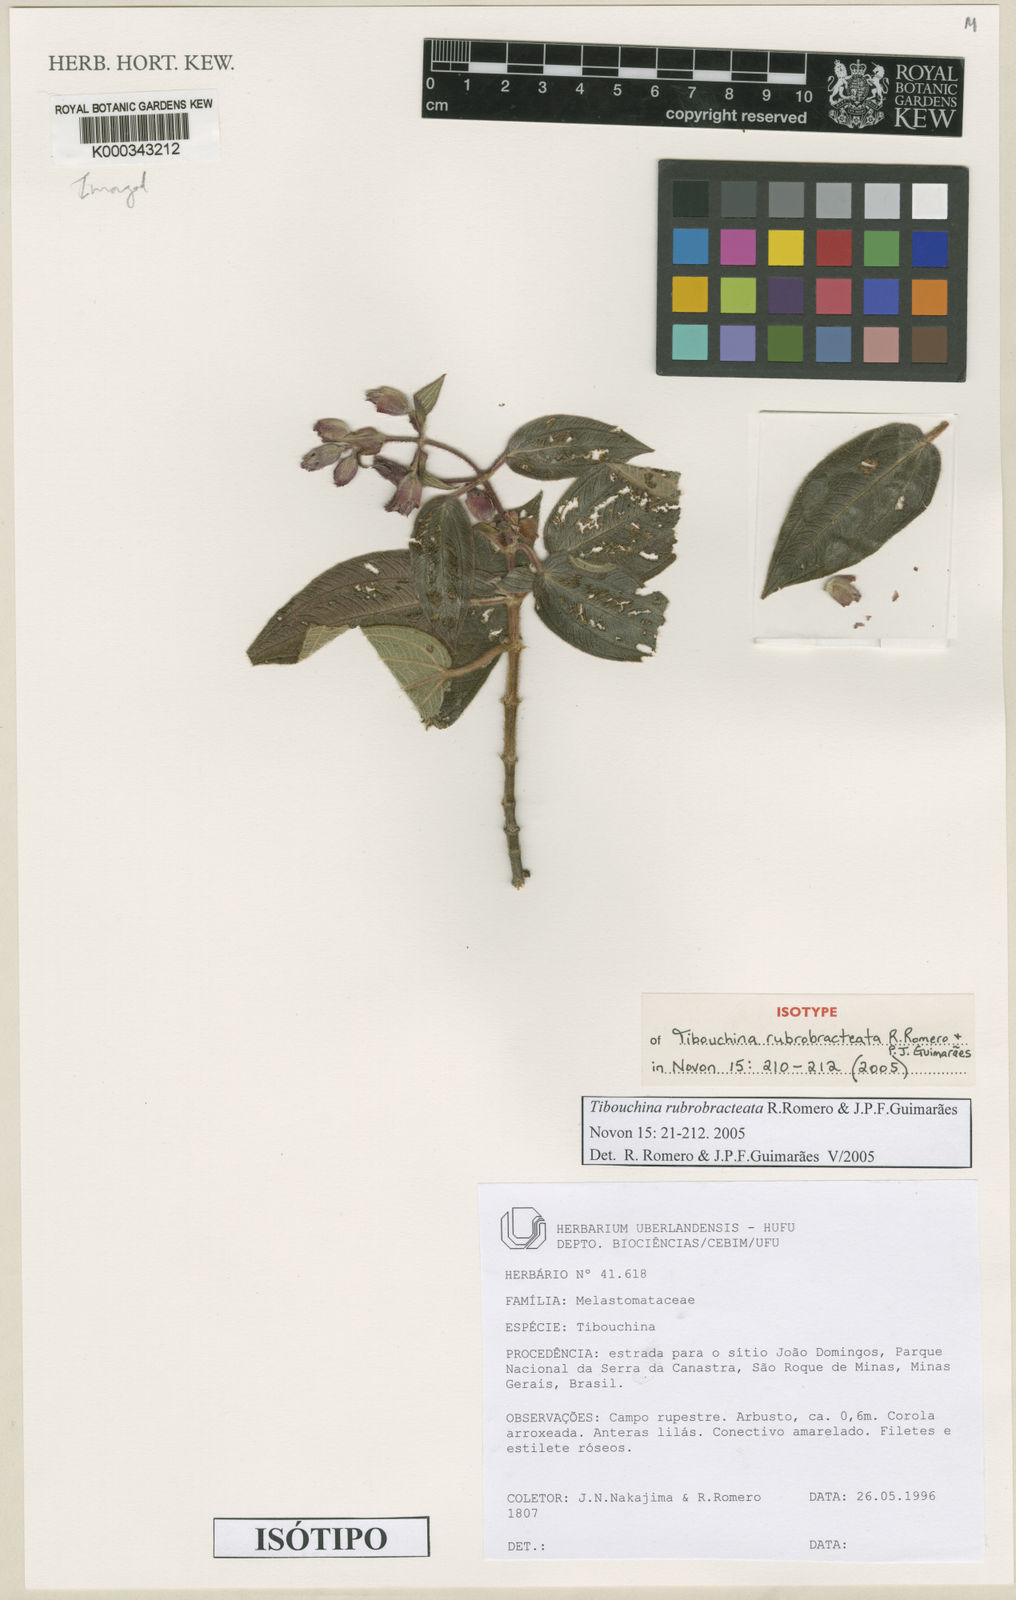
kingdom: Plantae
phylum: Tracheophyta
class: Magnoliopsida
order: Myrtales
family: Melastomataceae
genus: Pleroma
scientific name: Pleroma rubrobracteatum
